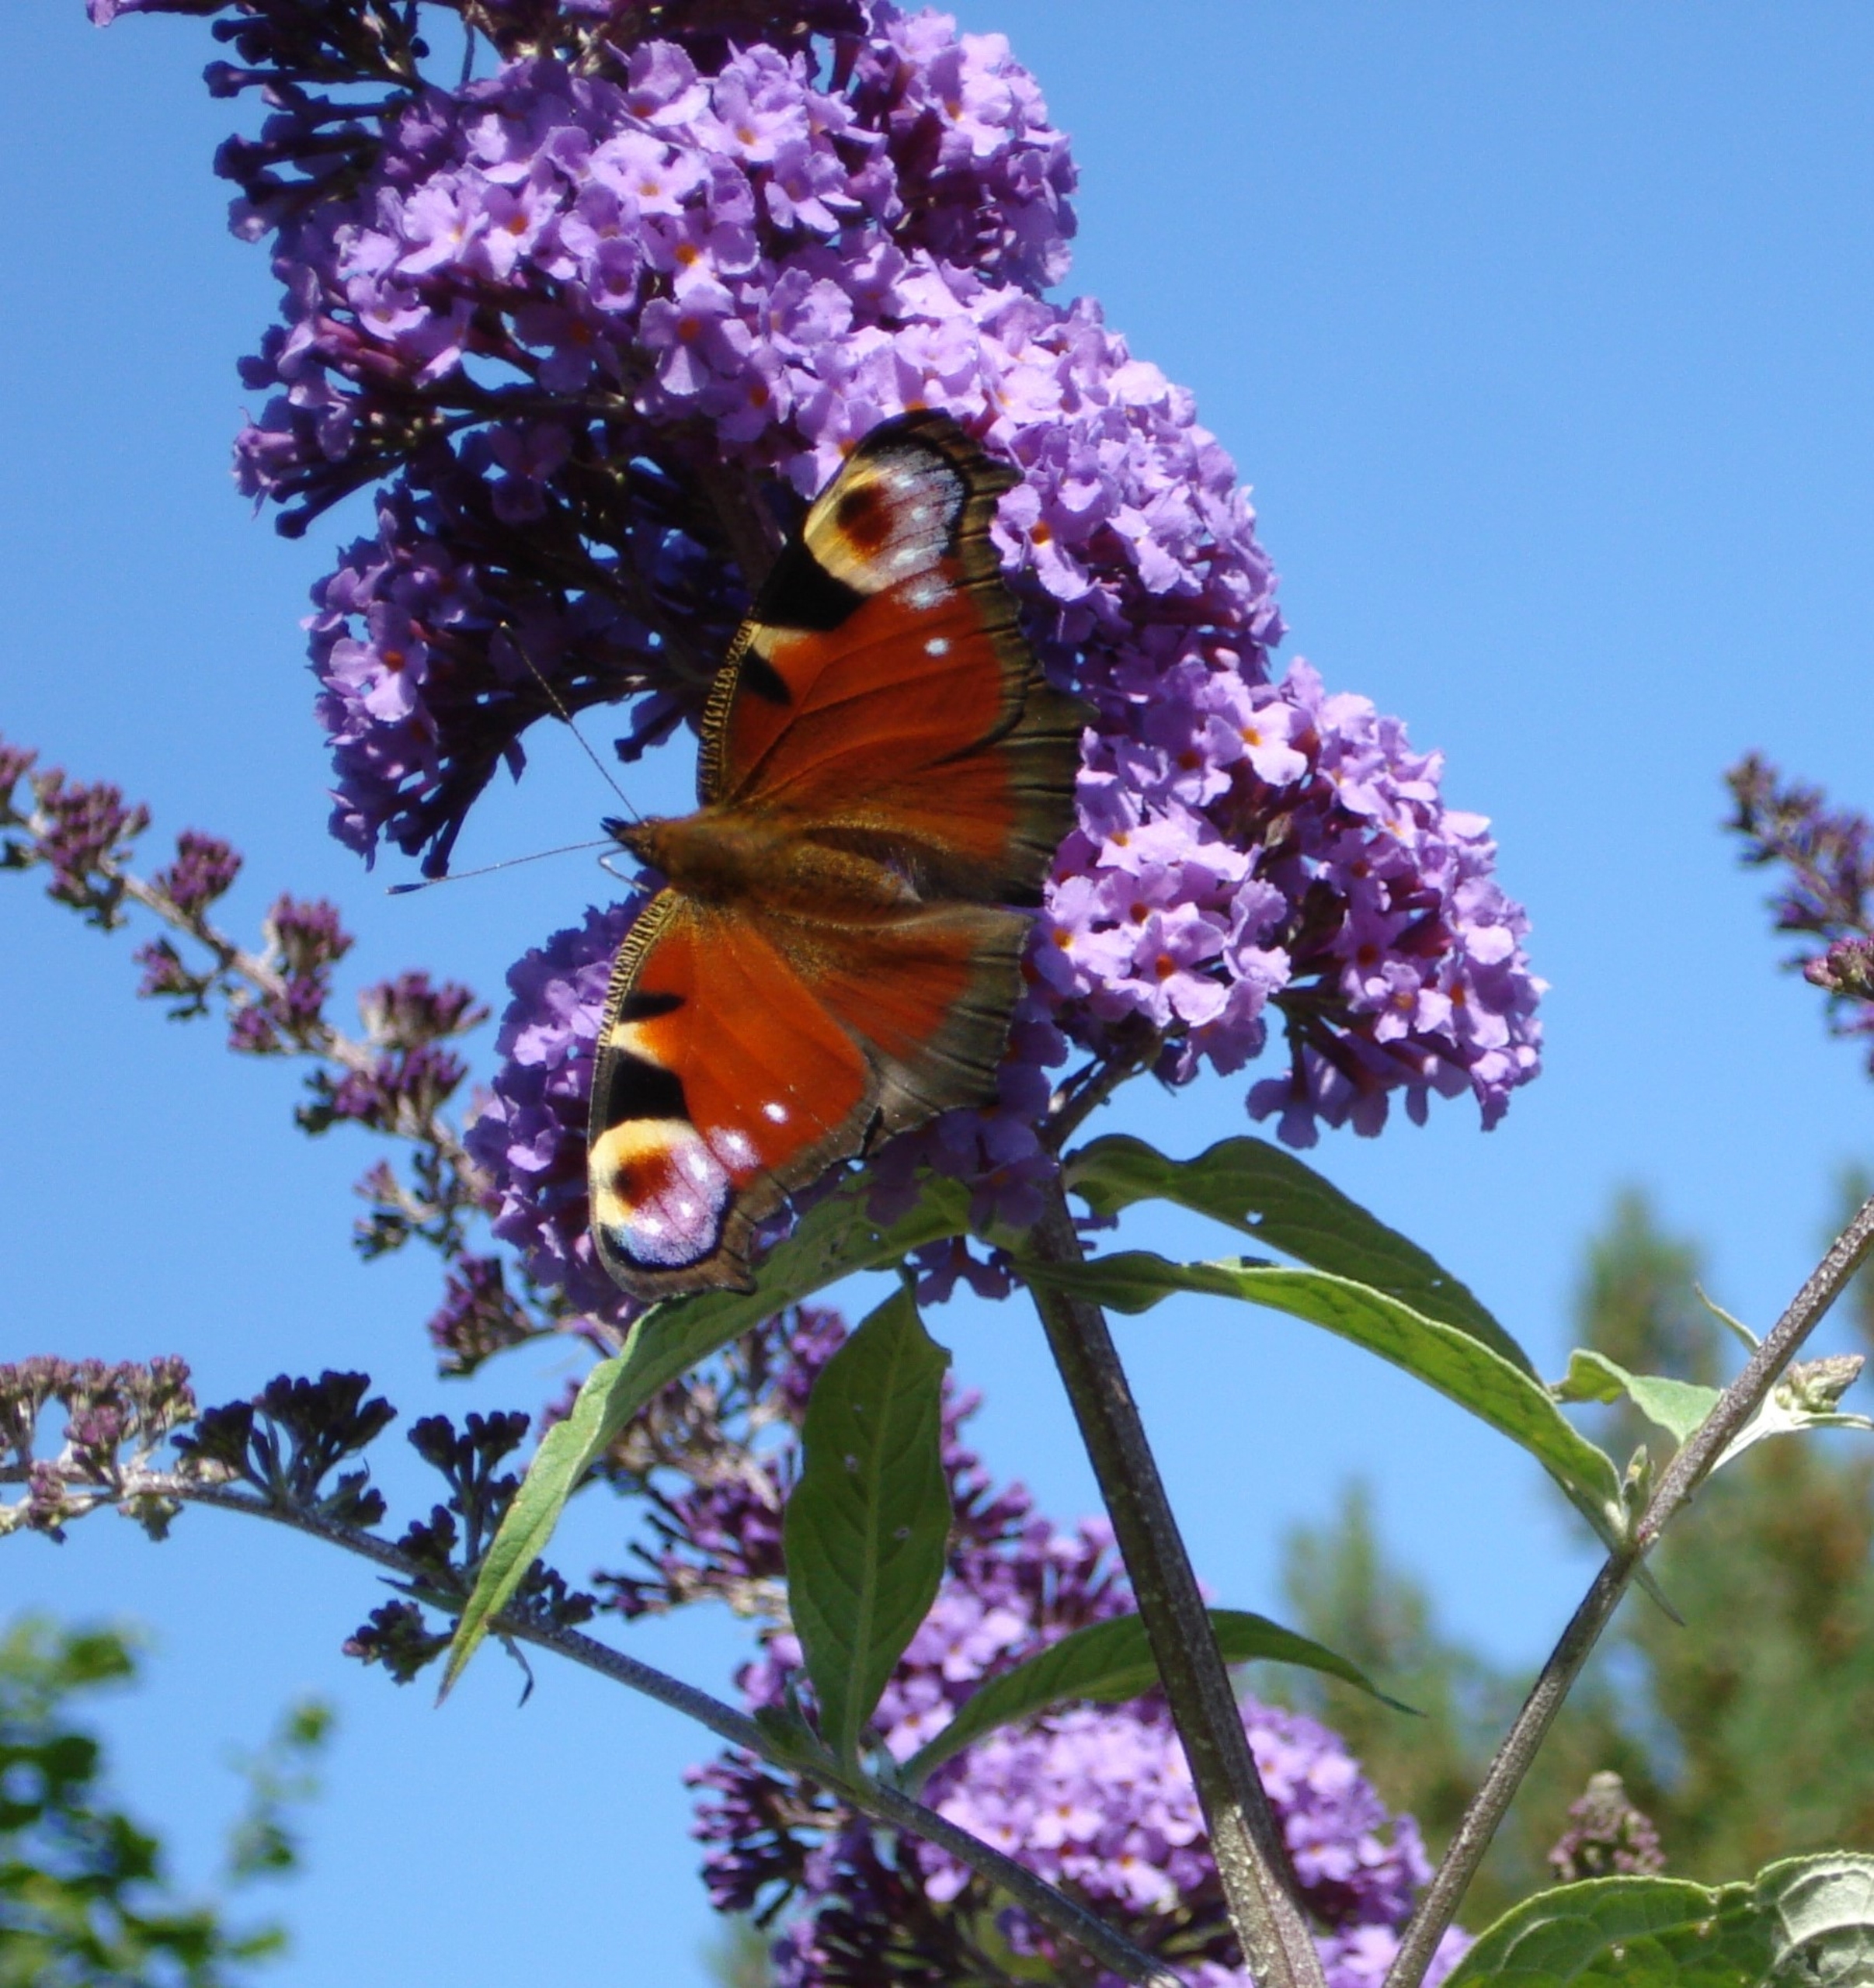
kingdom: Animalia
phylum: Arthropoda
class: Insecta
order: Lepidoptera
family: Nymphalidae
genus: Aglais
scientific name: Aglais io
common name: Dagpåfugleøje
